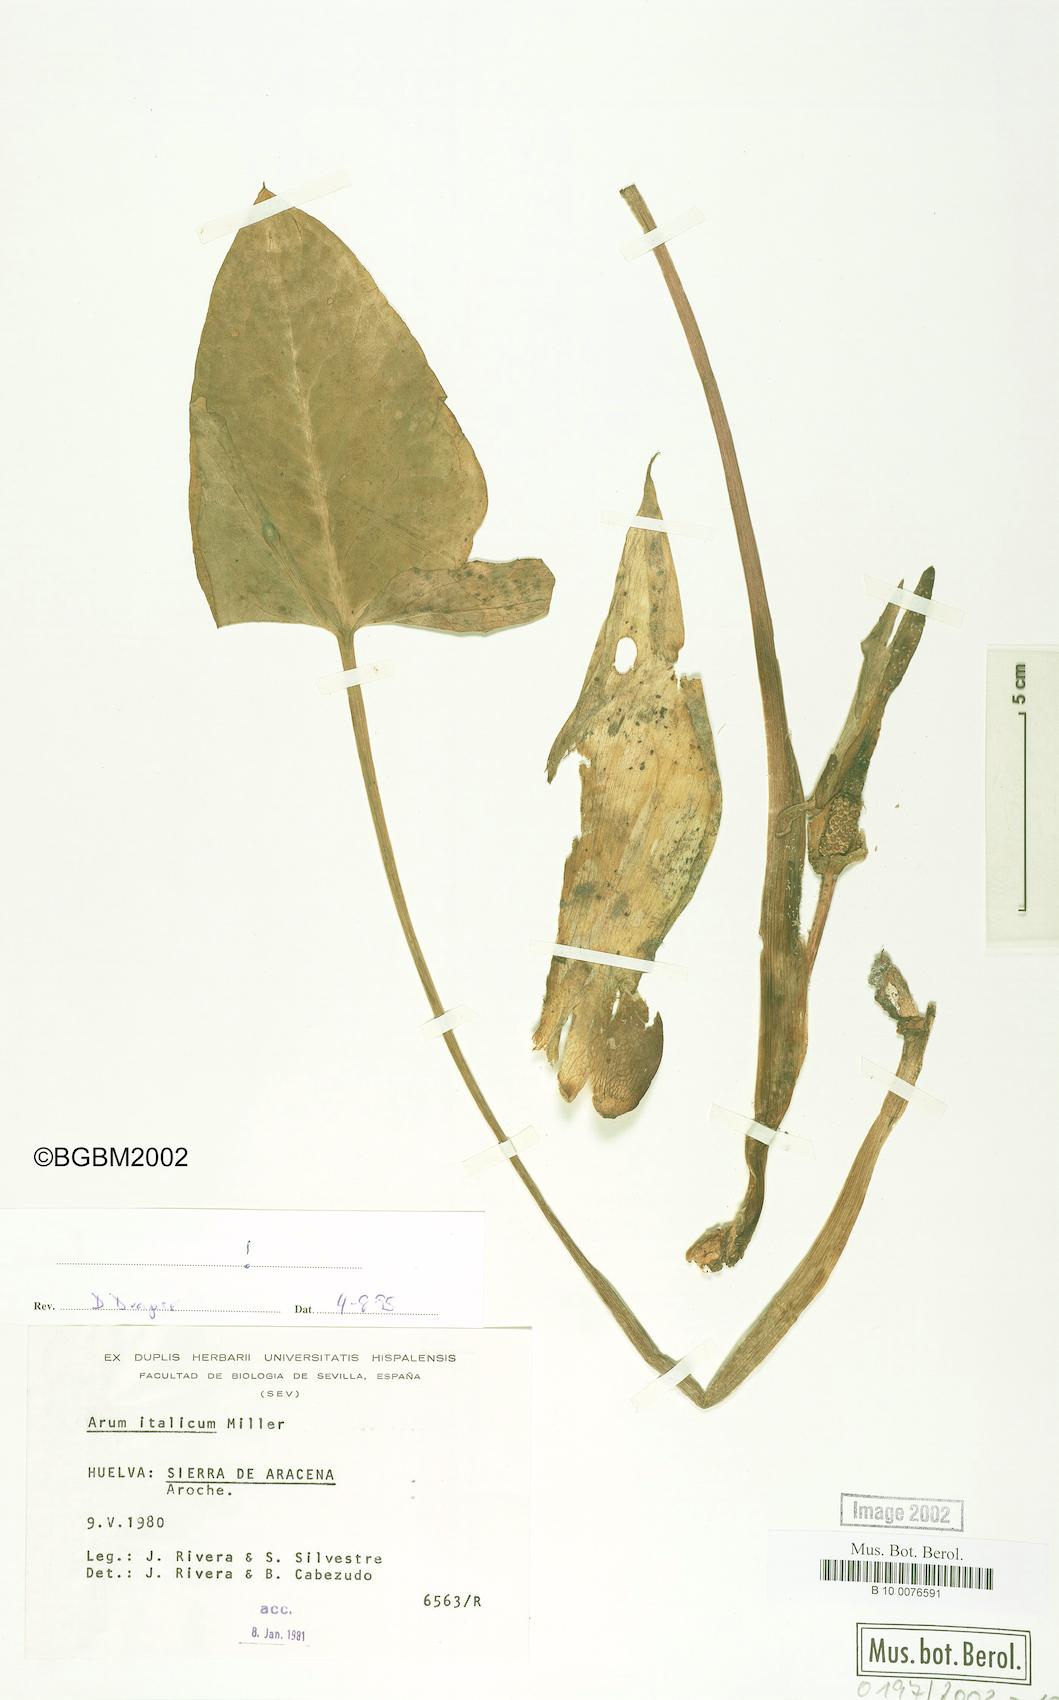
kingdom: Plantae
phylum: Tracheophyta
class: Liliopsida
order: Alismatales
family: Araceae
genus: Arum
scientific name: Arum italicum
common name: Italian lords-and-ladies
